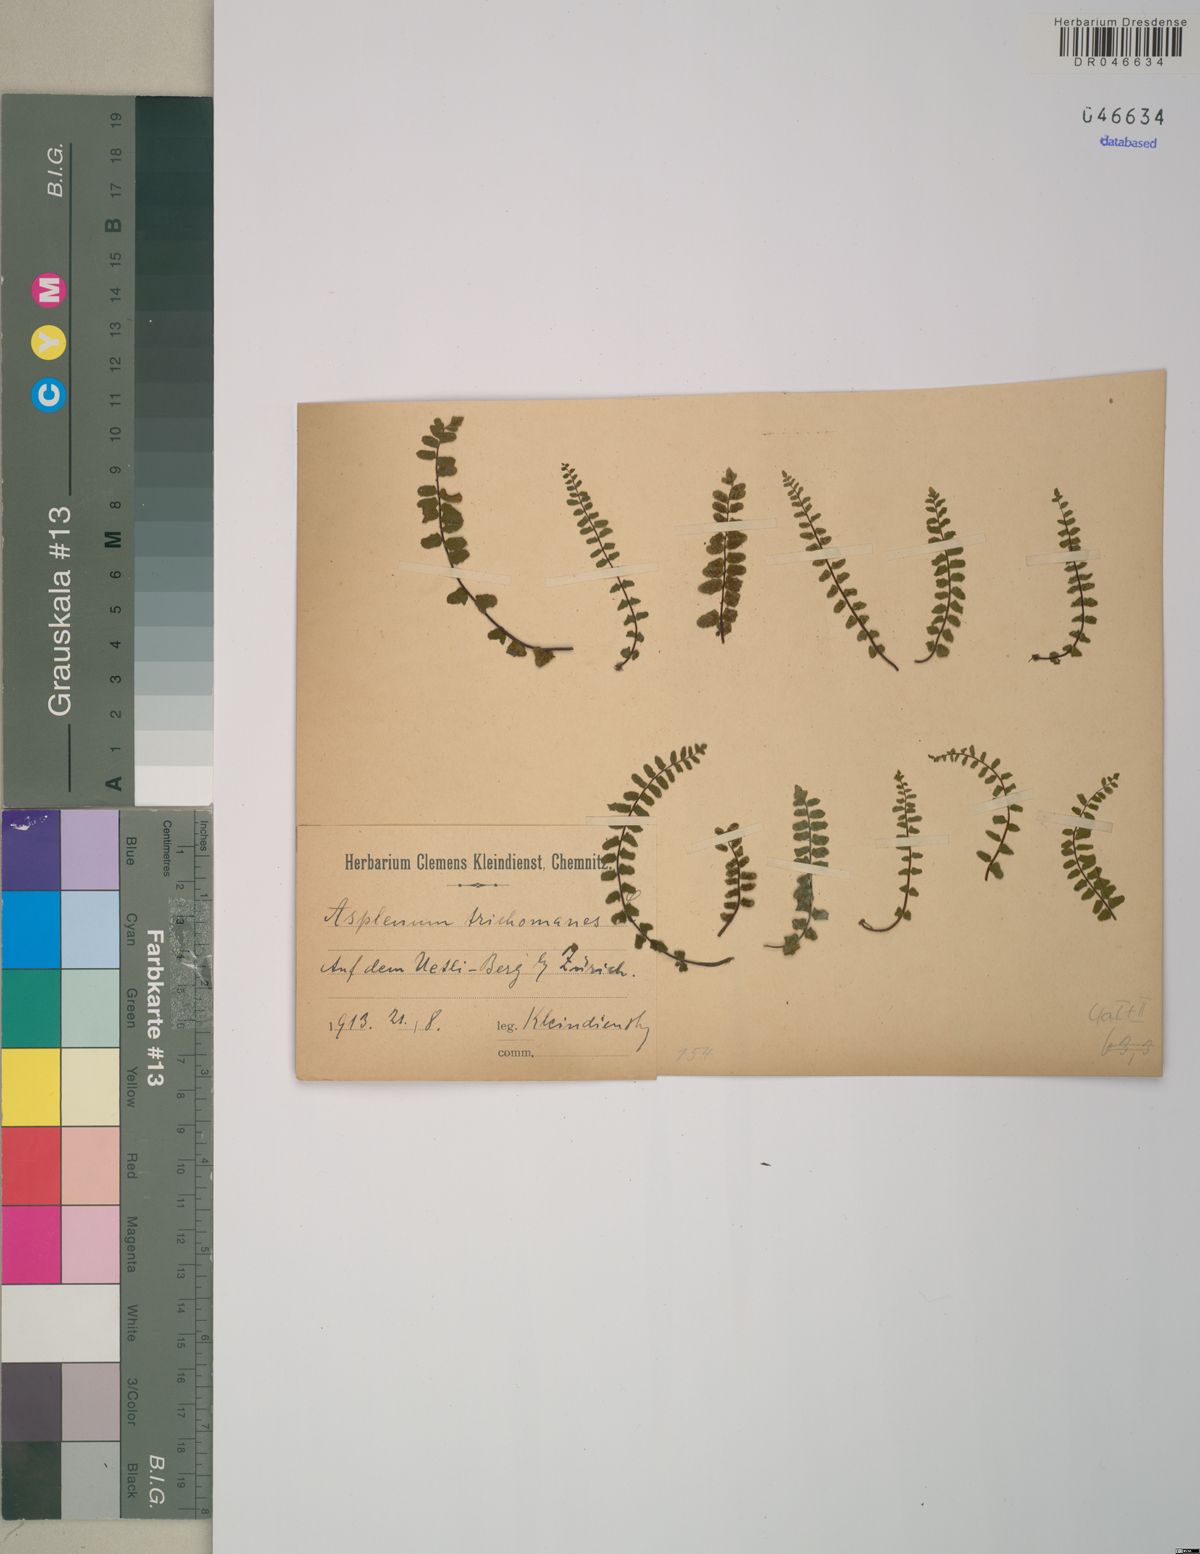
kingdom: Plantae
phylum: Tracheophyta
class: Polypodiopsida
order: Polypodiales
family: Aspleniaceae
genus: Asplenium
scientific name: Asplenium trichomanes
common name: Maidenhair spleenwort
